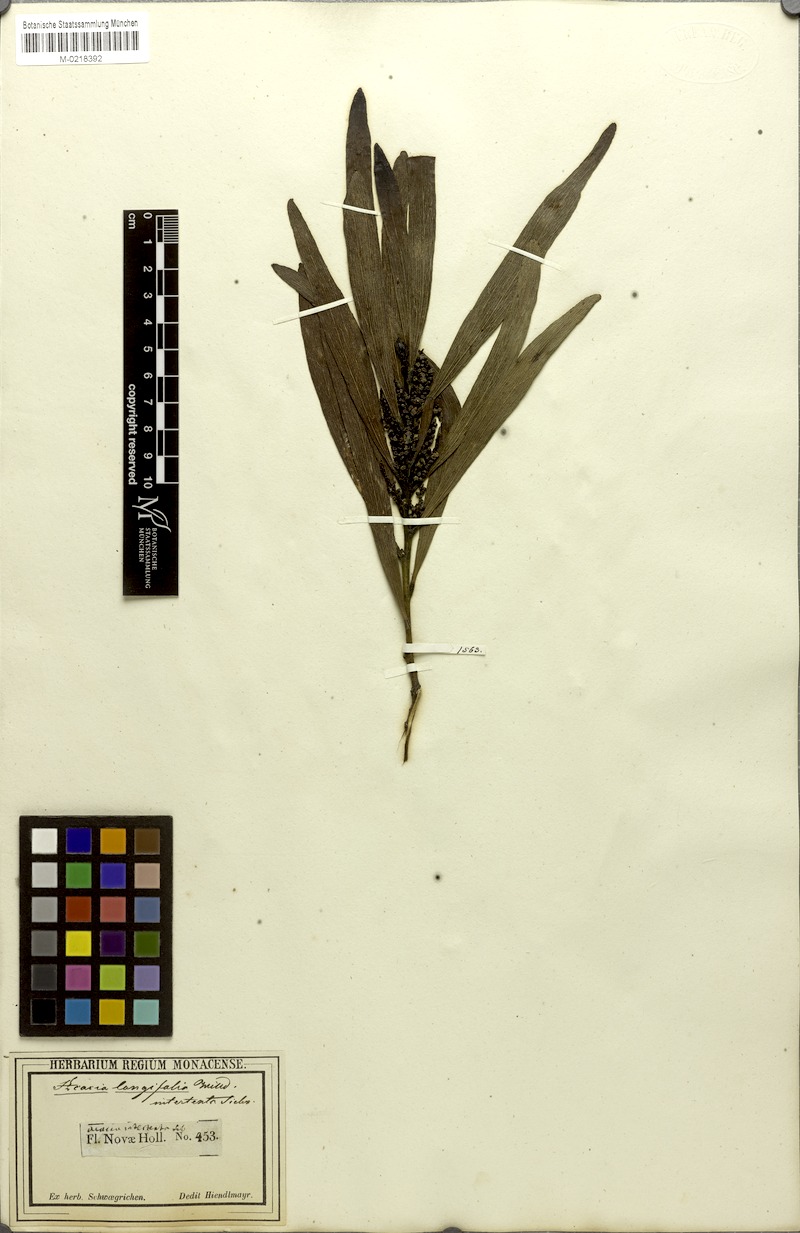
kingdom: Plantae
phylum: Tracheophyta
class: Magnoliopsida
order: Fabales
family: Fabaceae
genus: Acacia
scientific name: Acacia obtusifolia
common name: Stiff-leaf wattle
